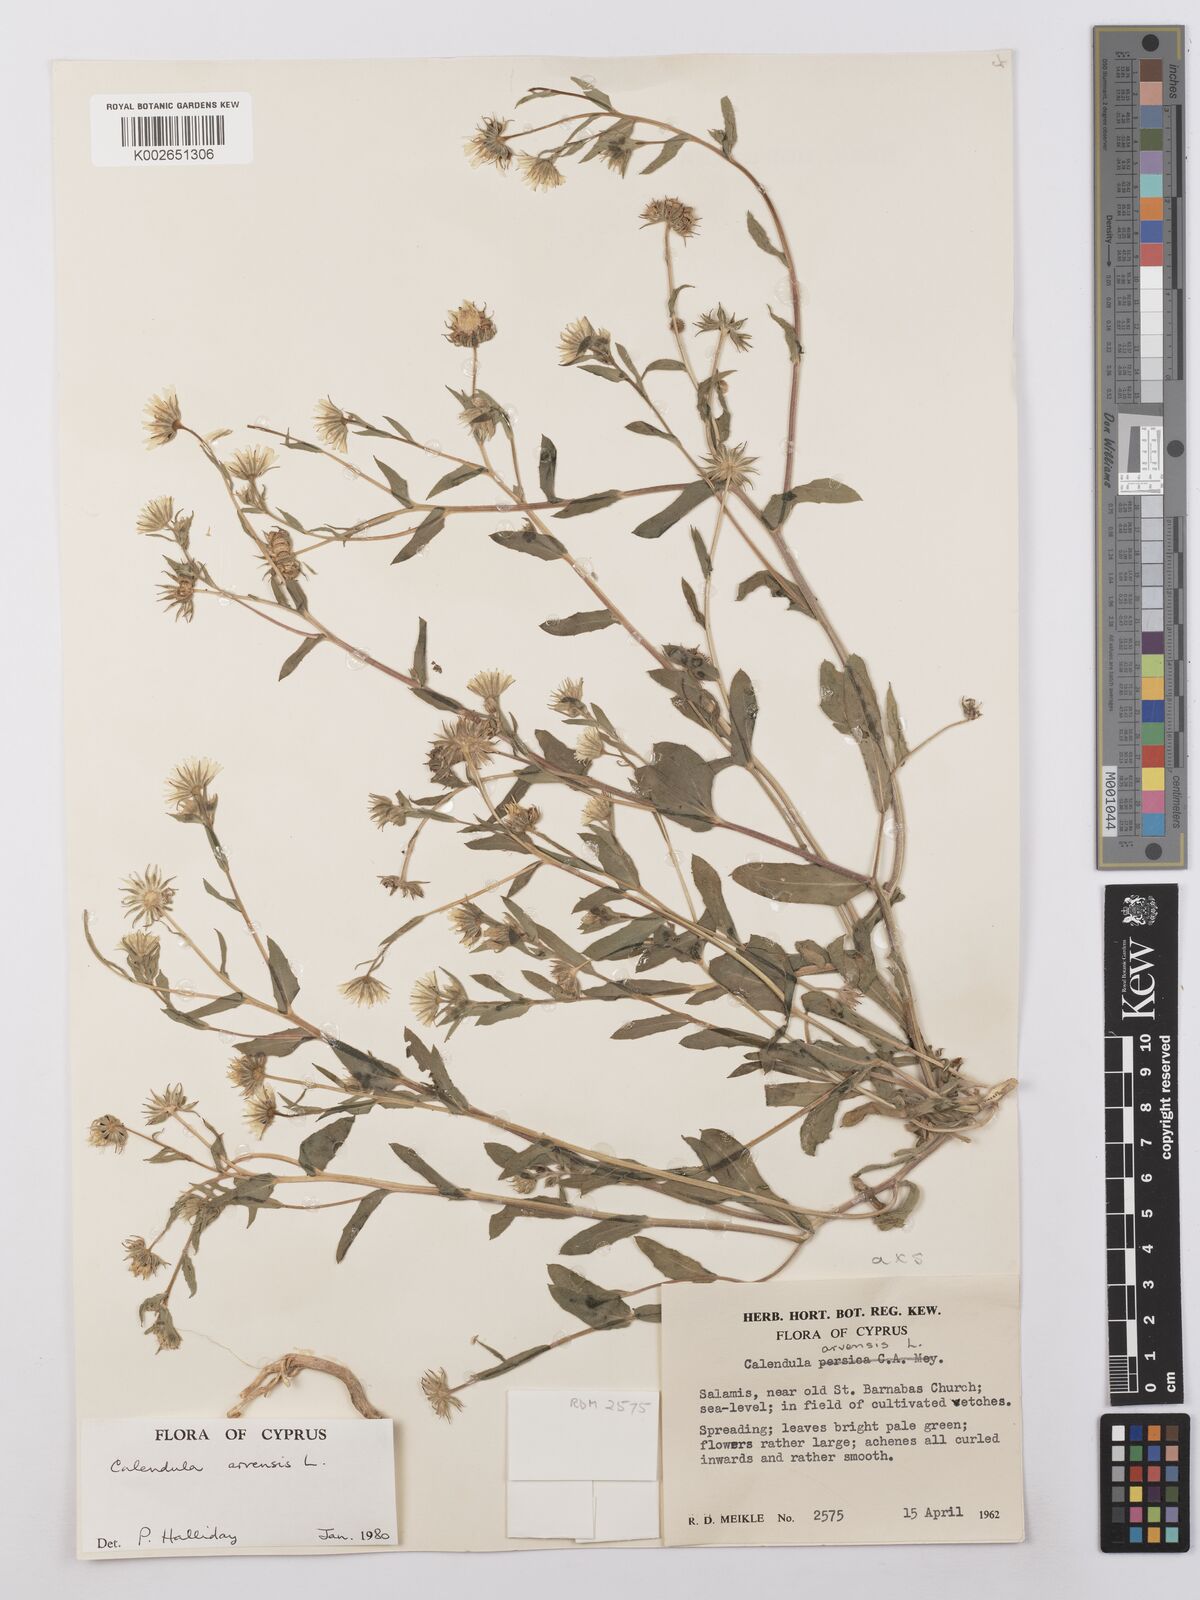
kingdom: Plantae
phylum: Tracheophyta
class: Magnoliopsida
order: Asterales
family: Asteraceae
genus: Calendula
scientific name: Calendula arvensis
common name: Field marigold
